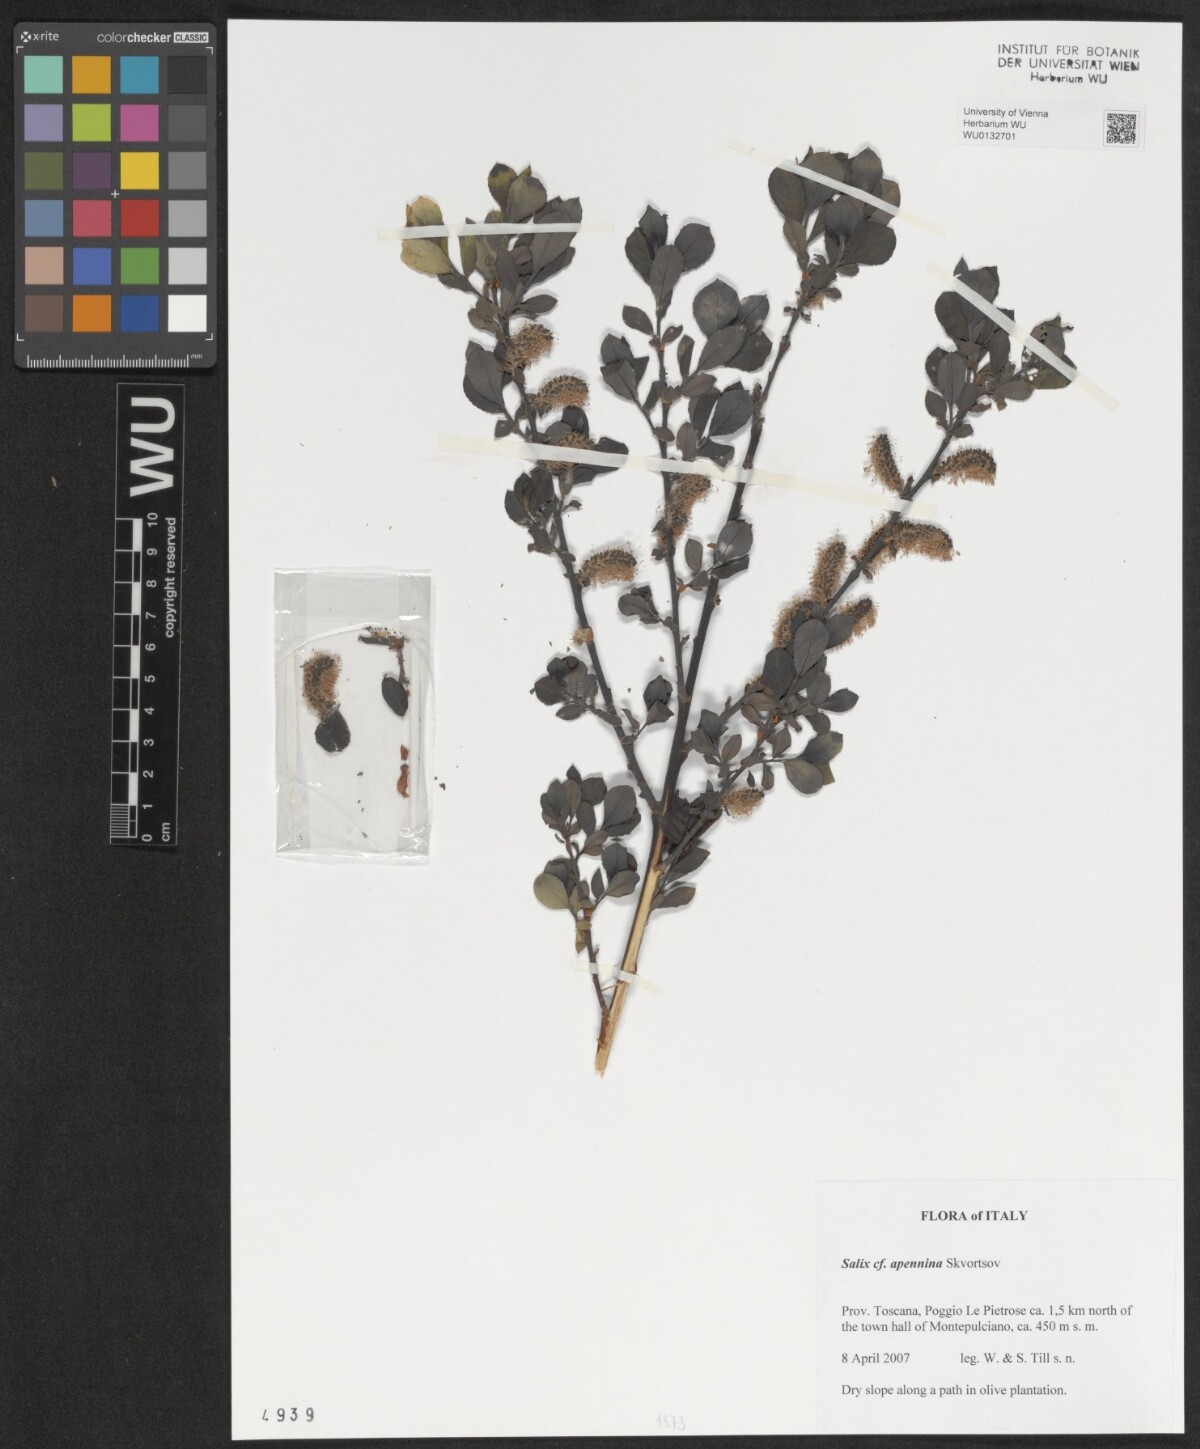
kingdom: Plantae
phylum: Tracheophyta
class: Magnoliopsida
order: Malpighiales
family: Salicaceae
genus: Salix
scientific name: Salix apennina
